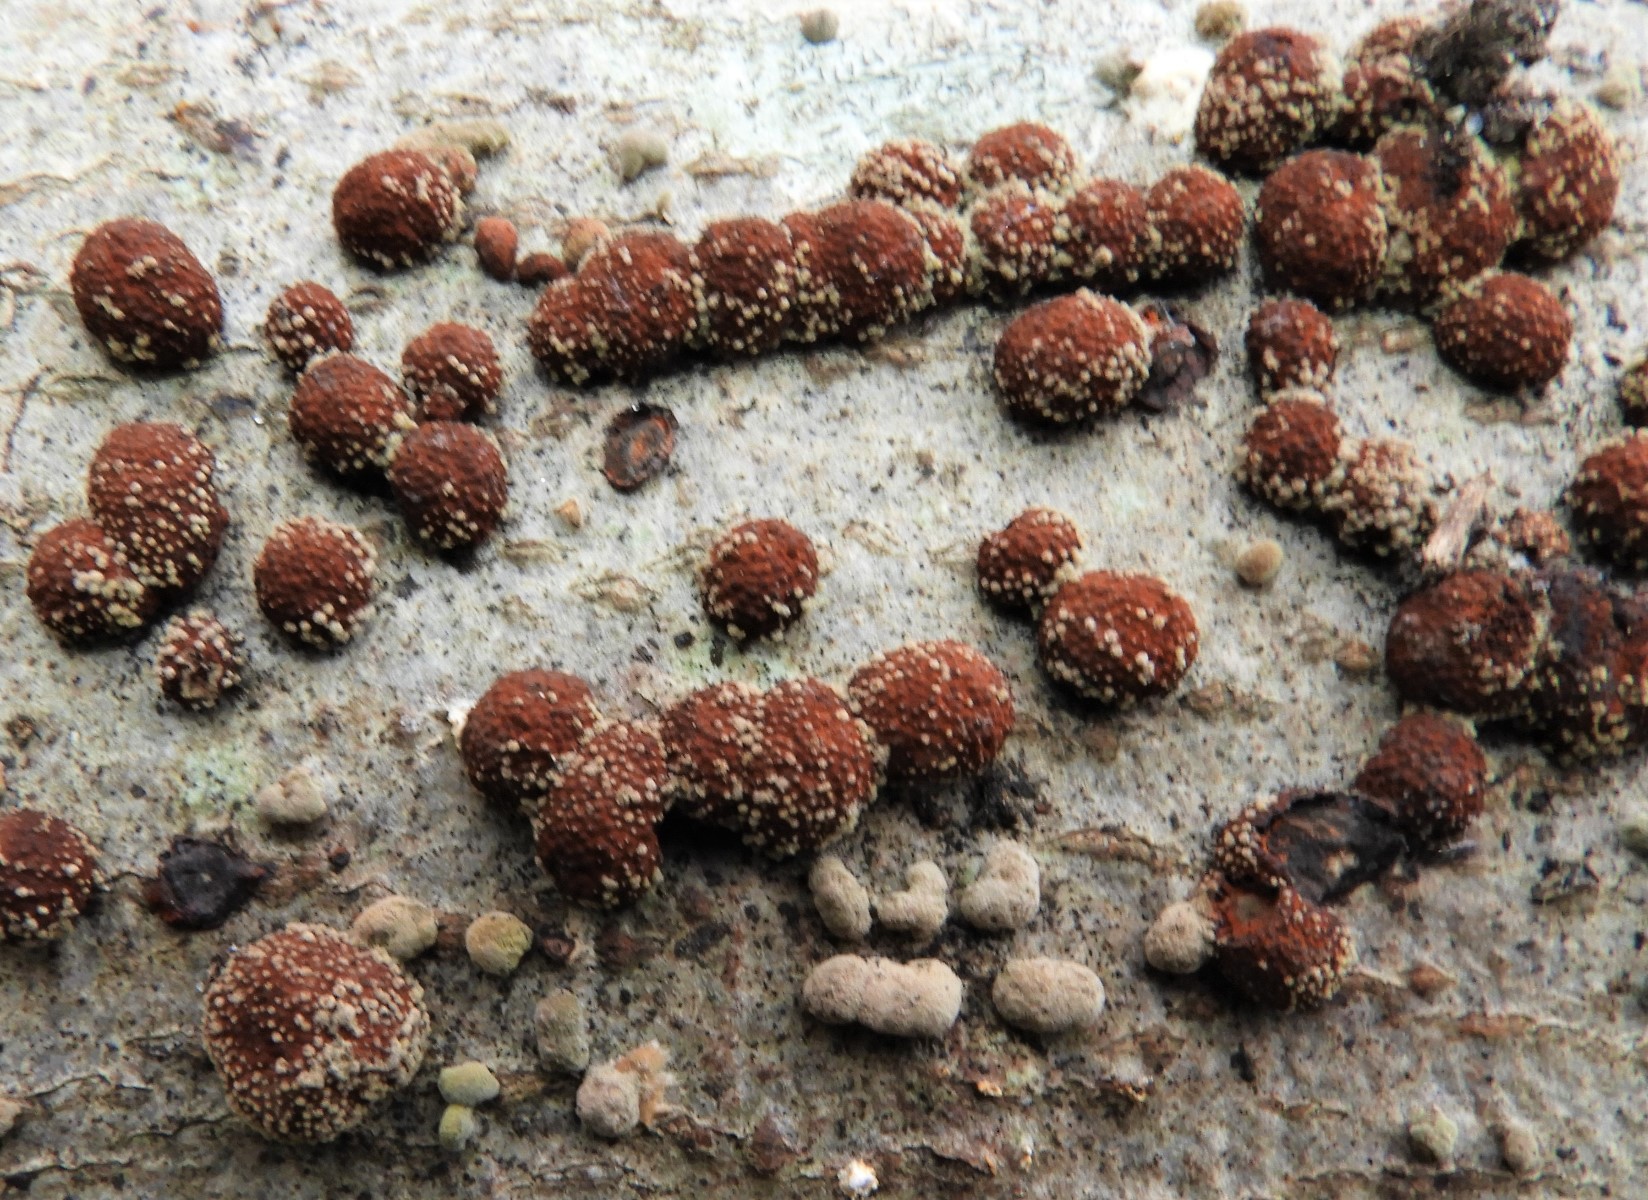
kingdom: Fungi
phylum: Ascomycota
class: Sordariomycetes
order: Xylariales
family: Hypoxylaceae
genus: Hypoxylon
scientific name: Hypoxylon fragiforme
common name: kuljordbær
